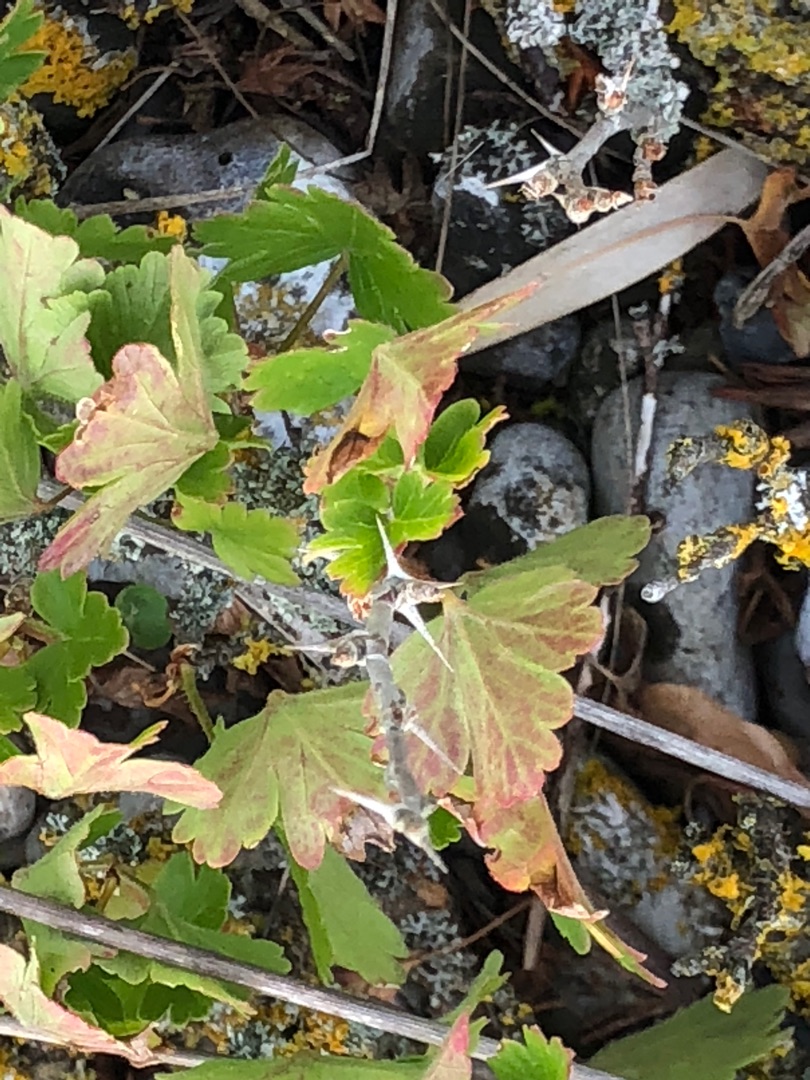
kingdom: Plantae
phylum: Tracheophyta
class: Magnoliopsida
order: Saxifragales
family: Grossulariaceae
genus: Ribes
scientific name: Ribes uva-crispa
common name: Stikkelsbær
